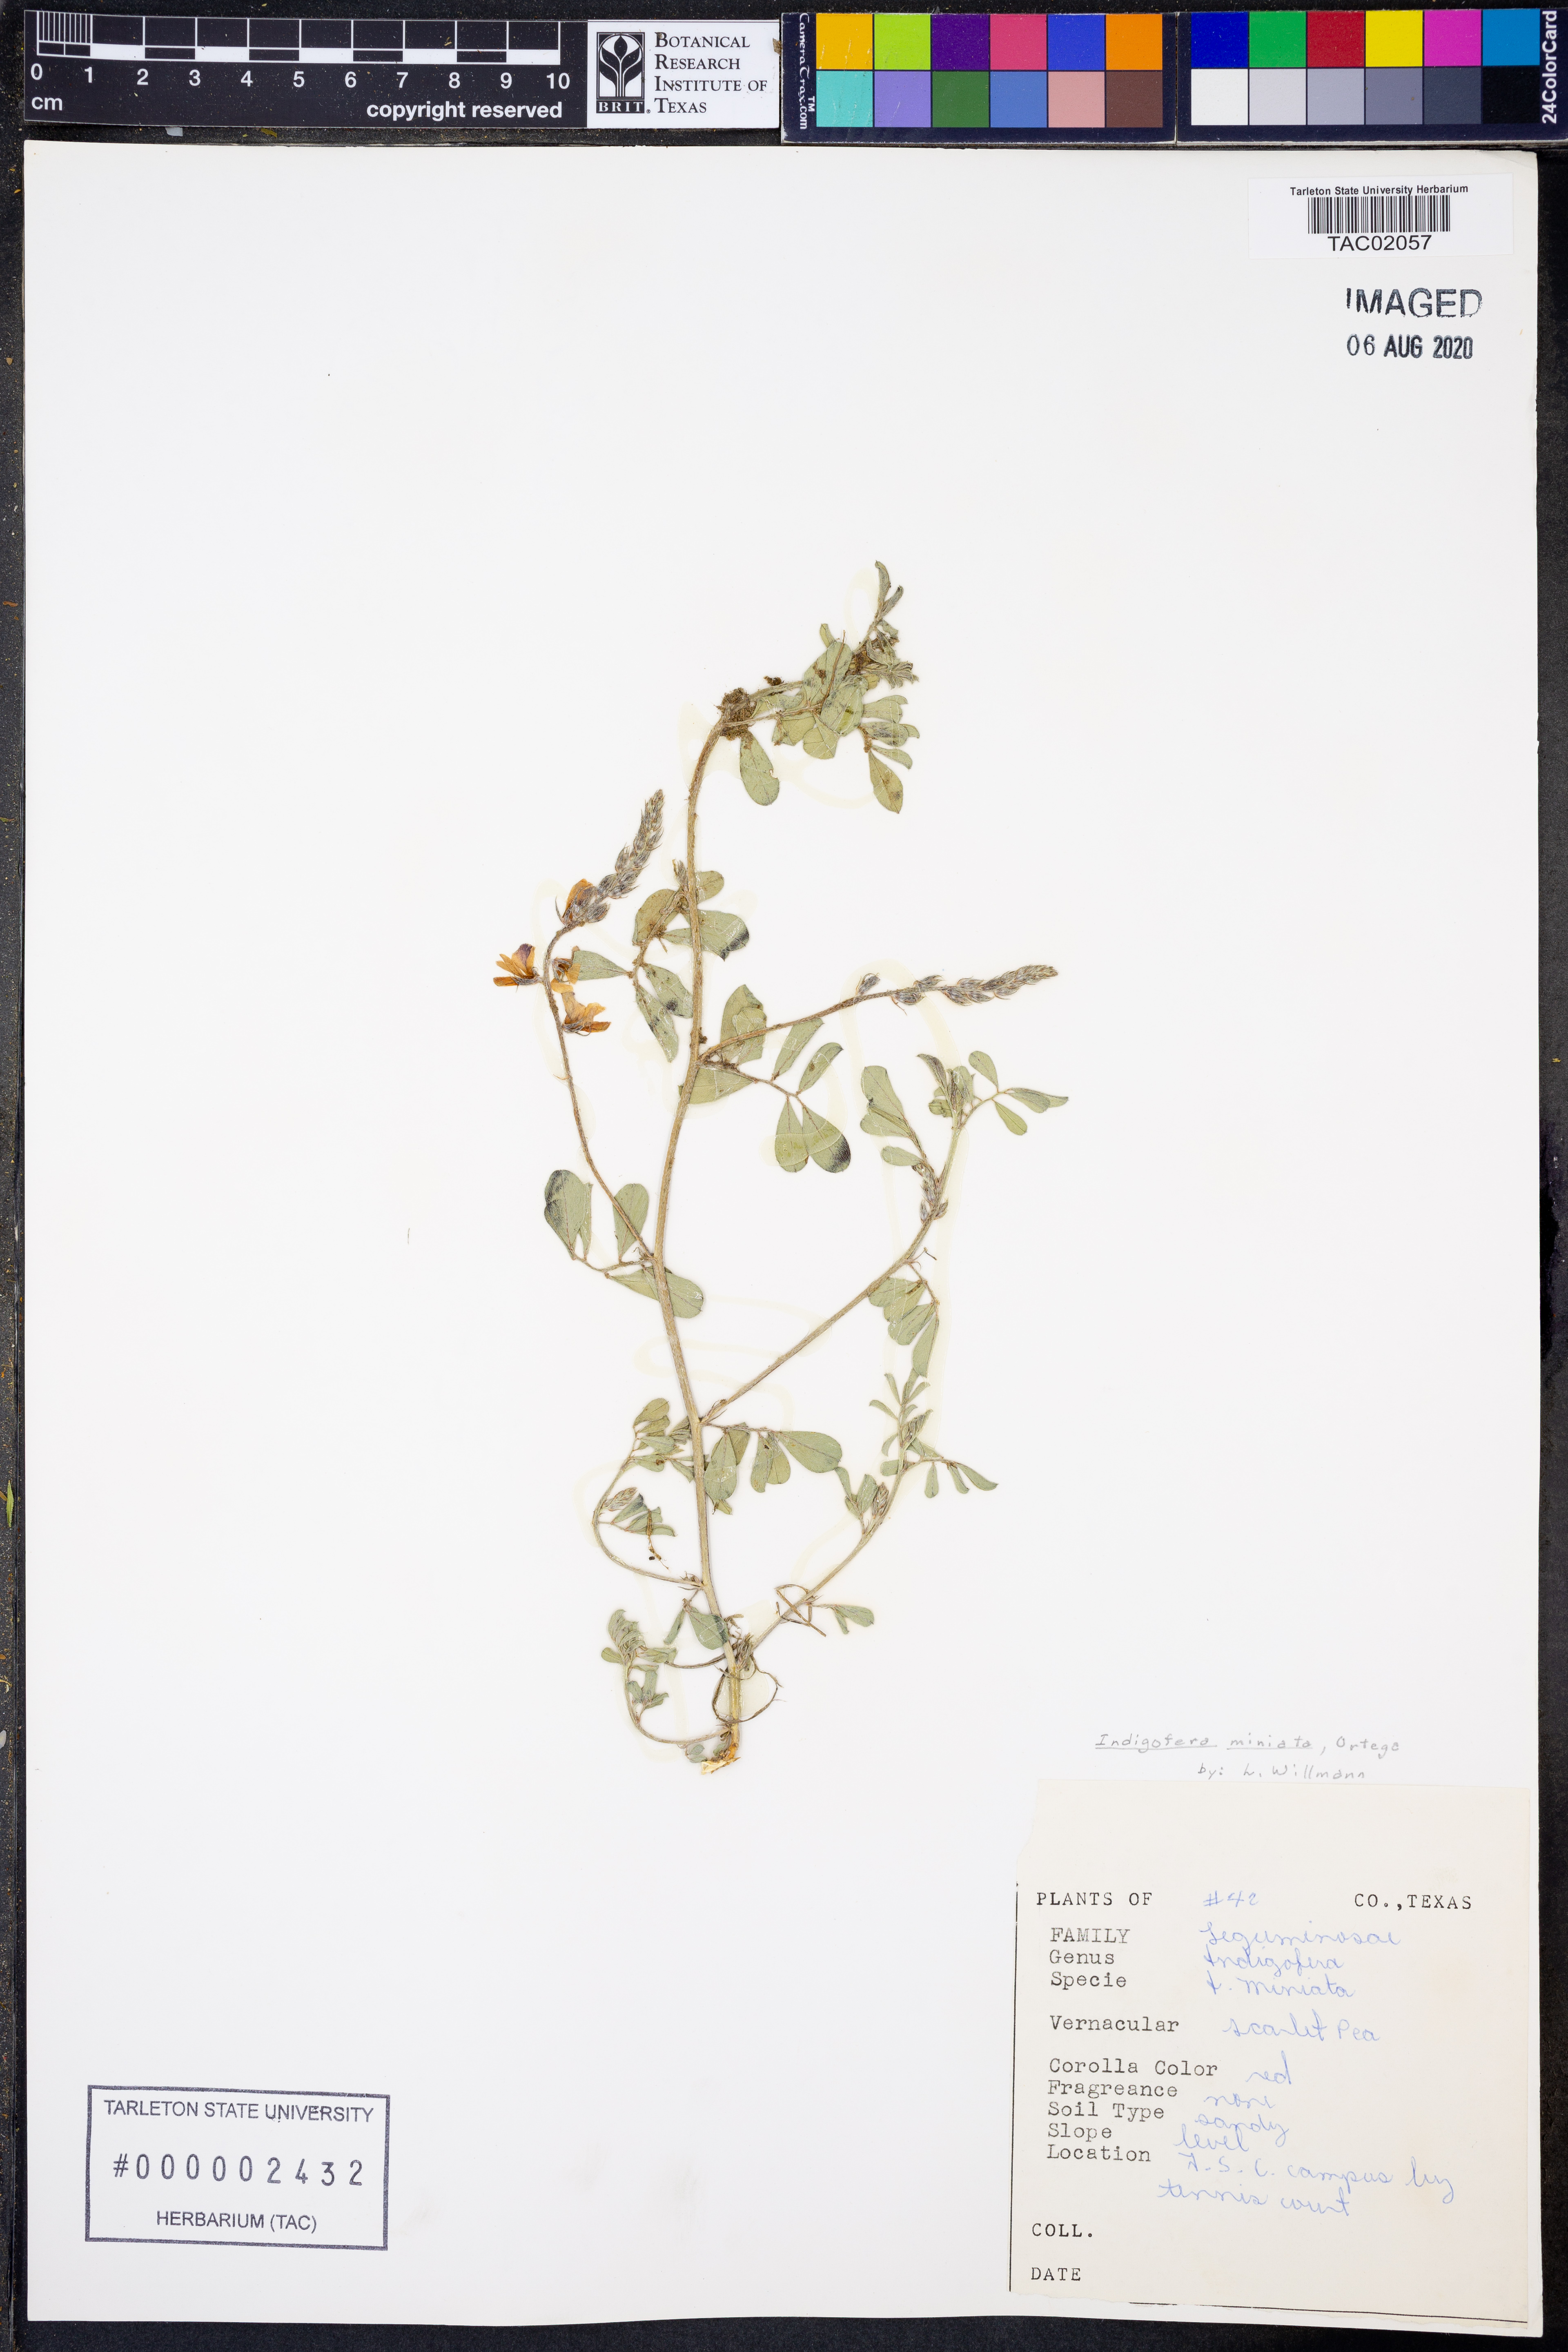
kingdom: Plantae
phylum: Tracheophyta
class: Magnoliopsida
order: Fabales
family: Fabaceae
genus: Indigofera
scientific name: Indigofera miniata
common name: Coast indigo
